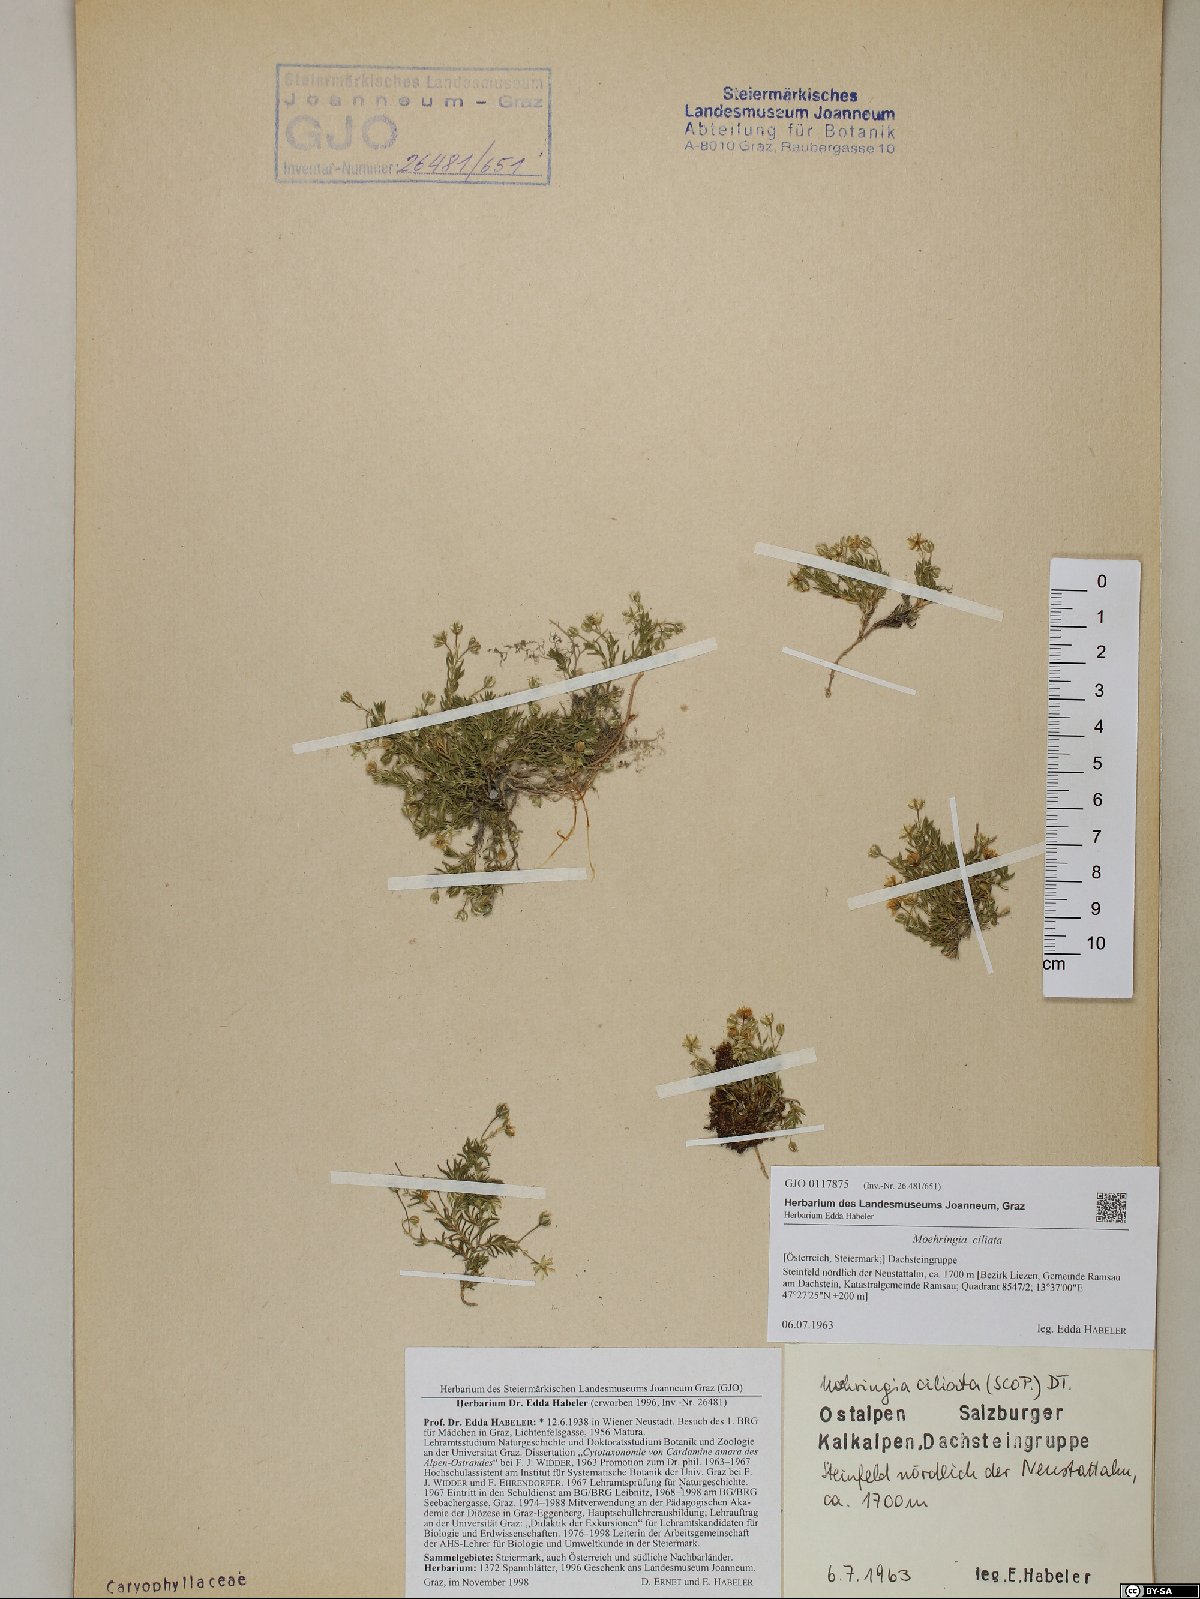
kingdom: Plantae
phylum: Tracheophyta
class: Magnoliopsida
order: Caryophyllales
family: Caryophyllaceae
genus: Moehringia
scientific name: Moehringia ciliata
